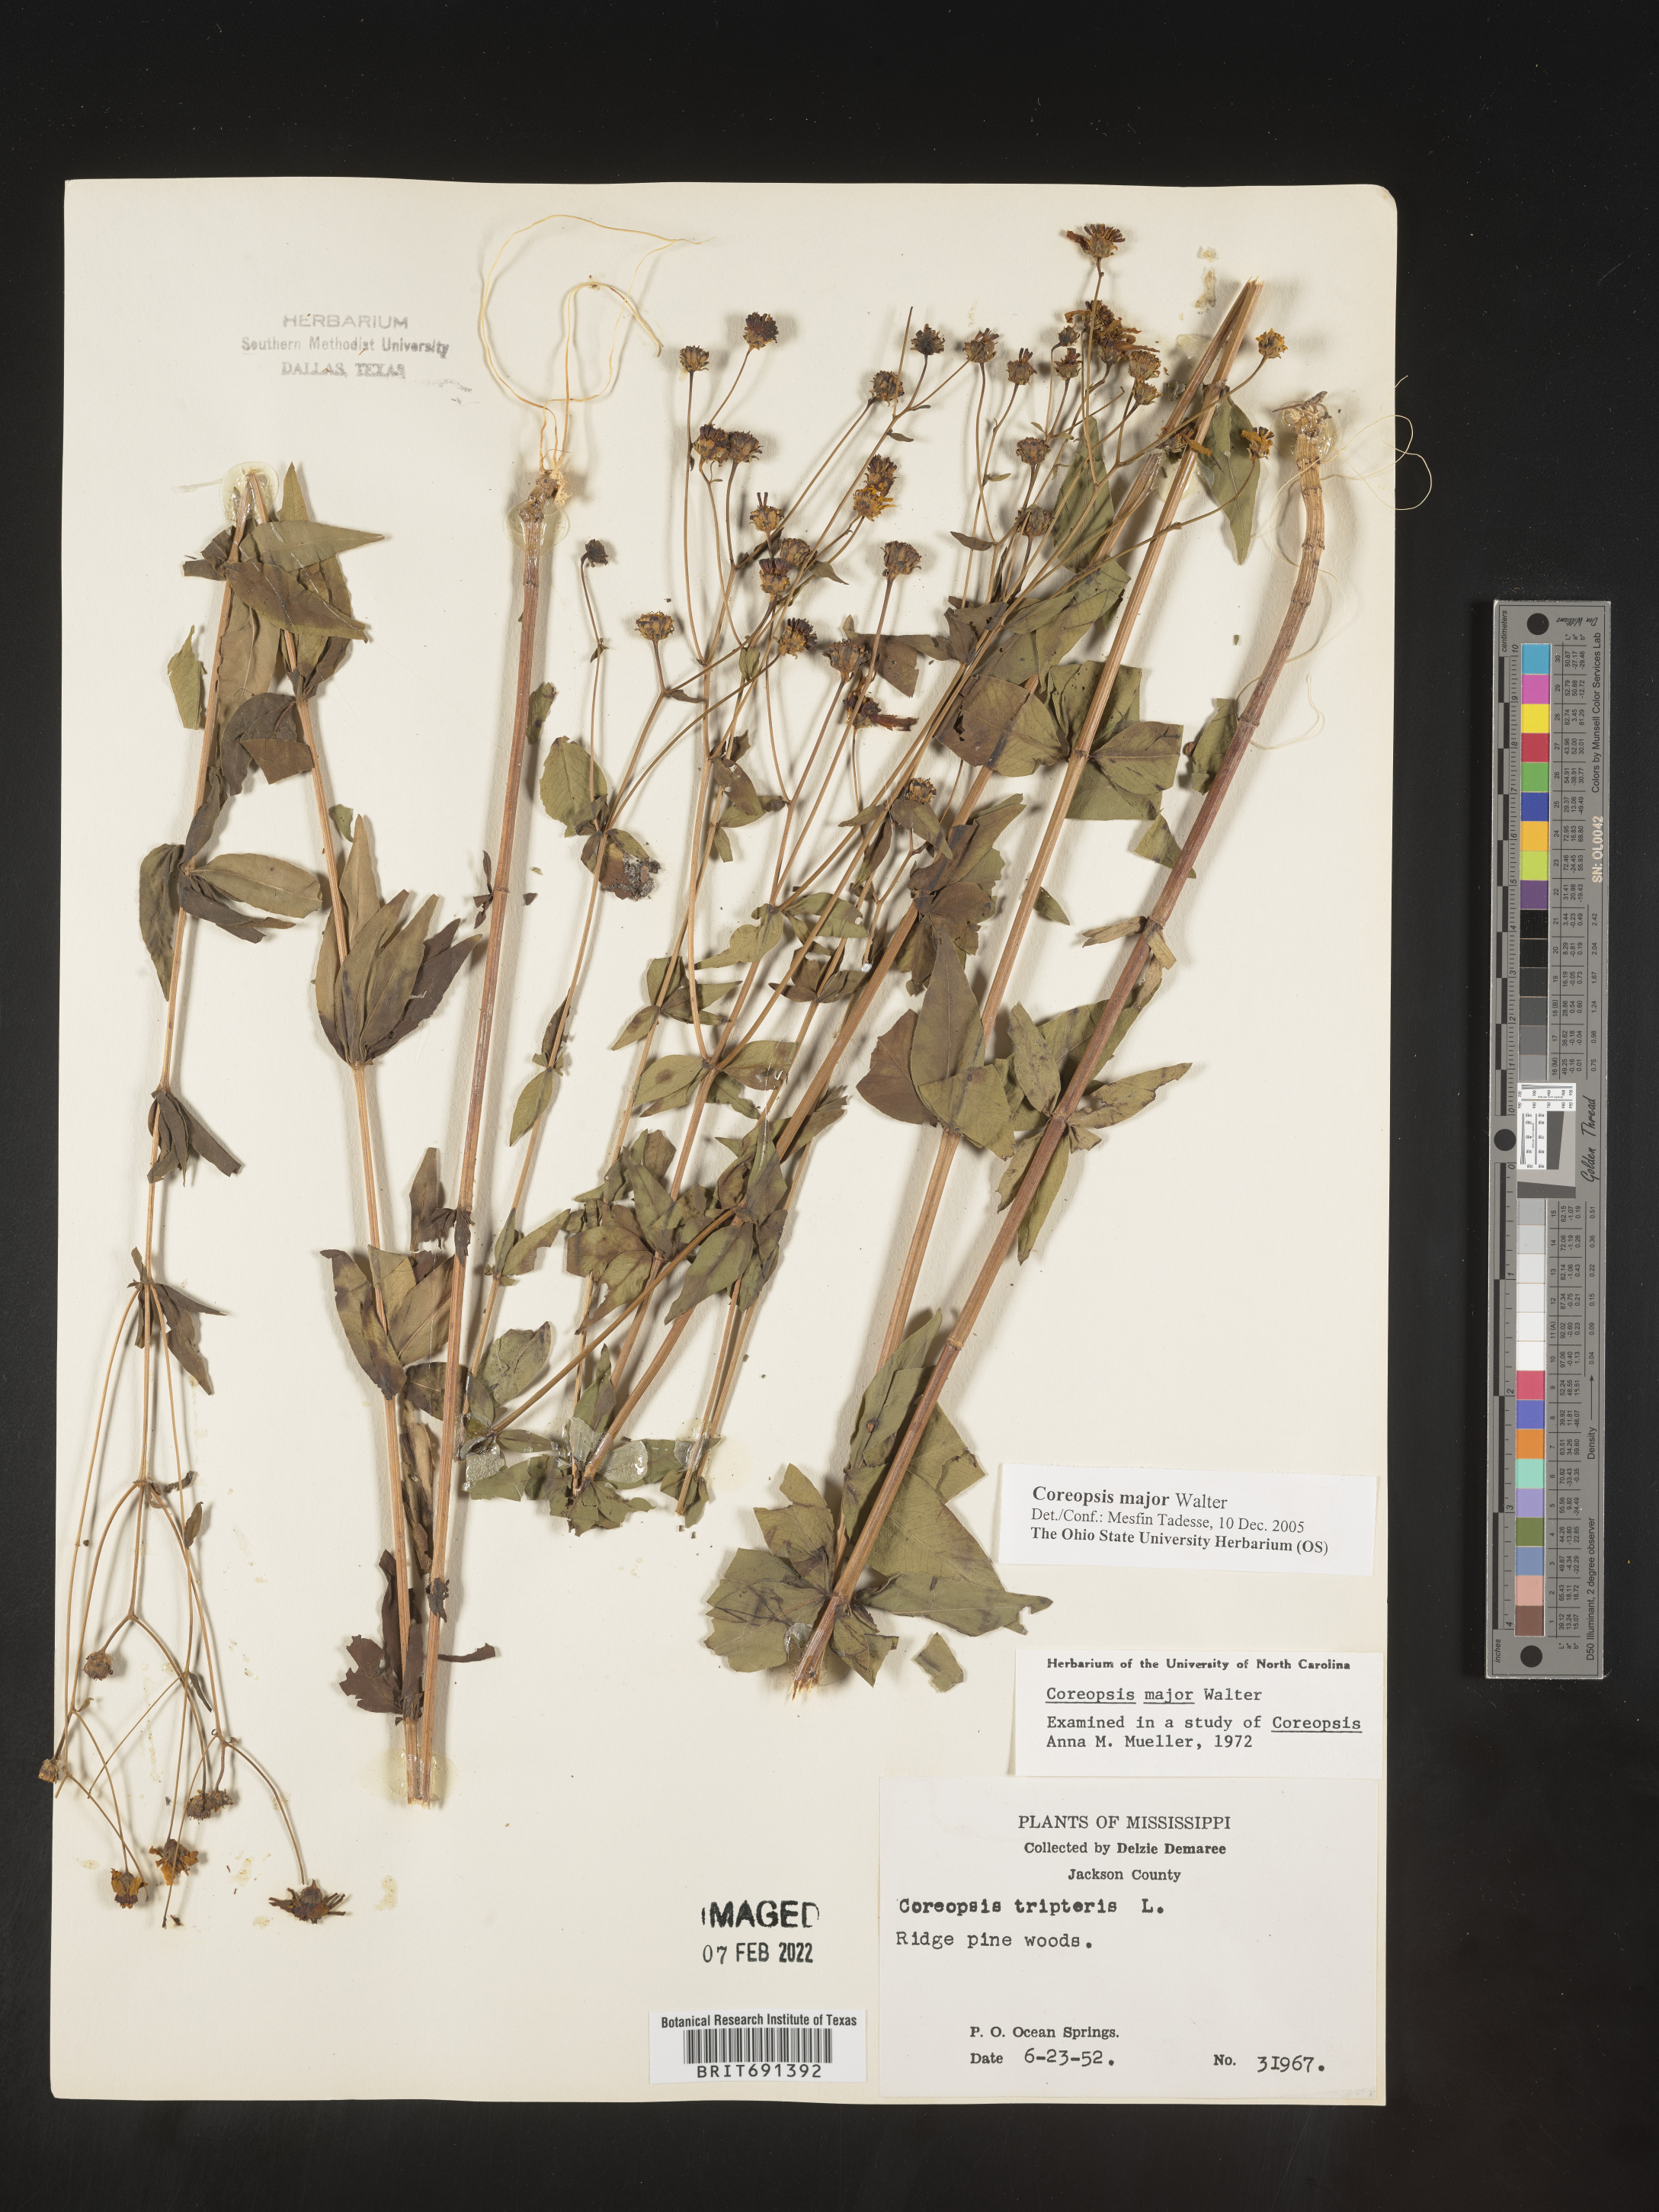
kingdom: Plantae
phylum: Tracheophyta
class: Magnoliopsida
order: Asterales
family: Asteraceae
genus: Coreopsis
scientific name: Coreopsis major
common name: Forest tickseed
